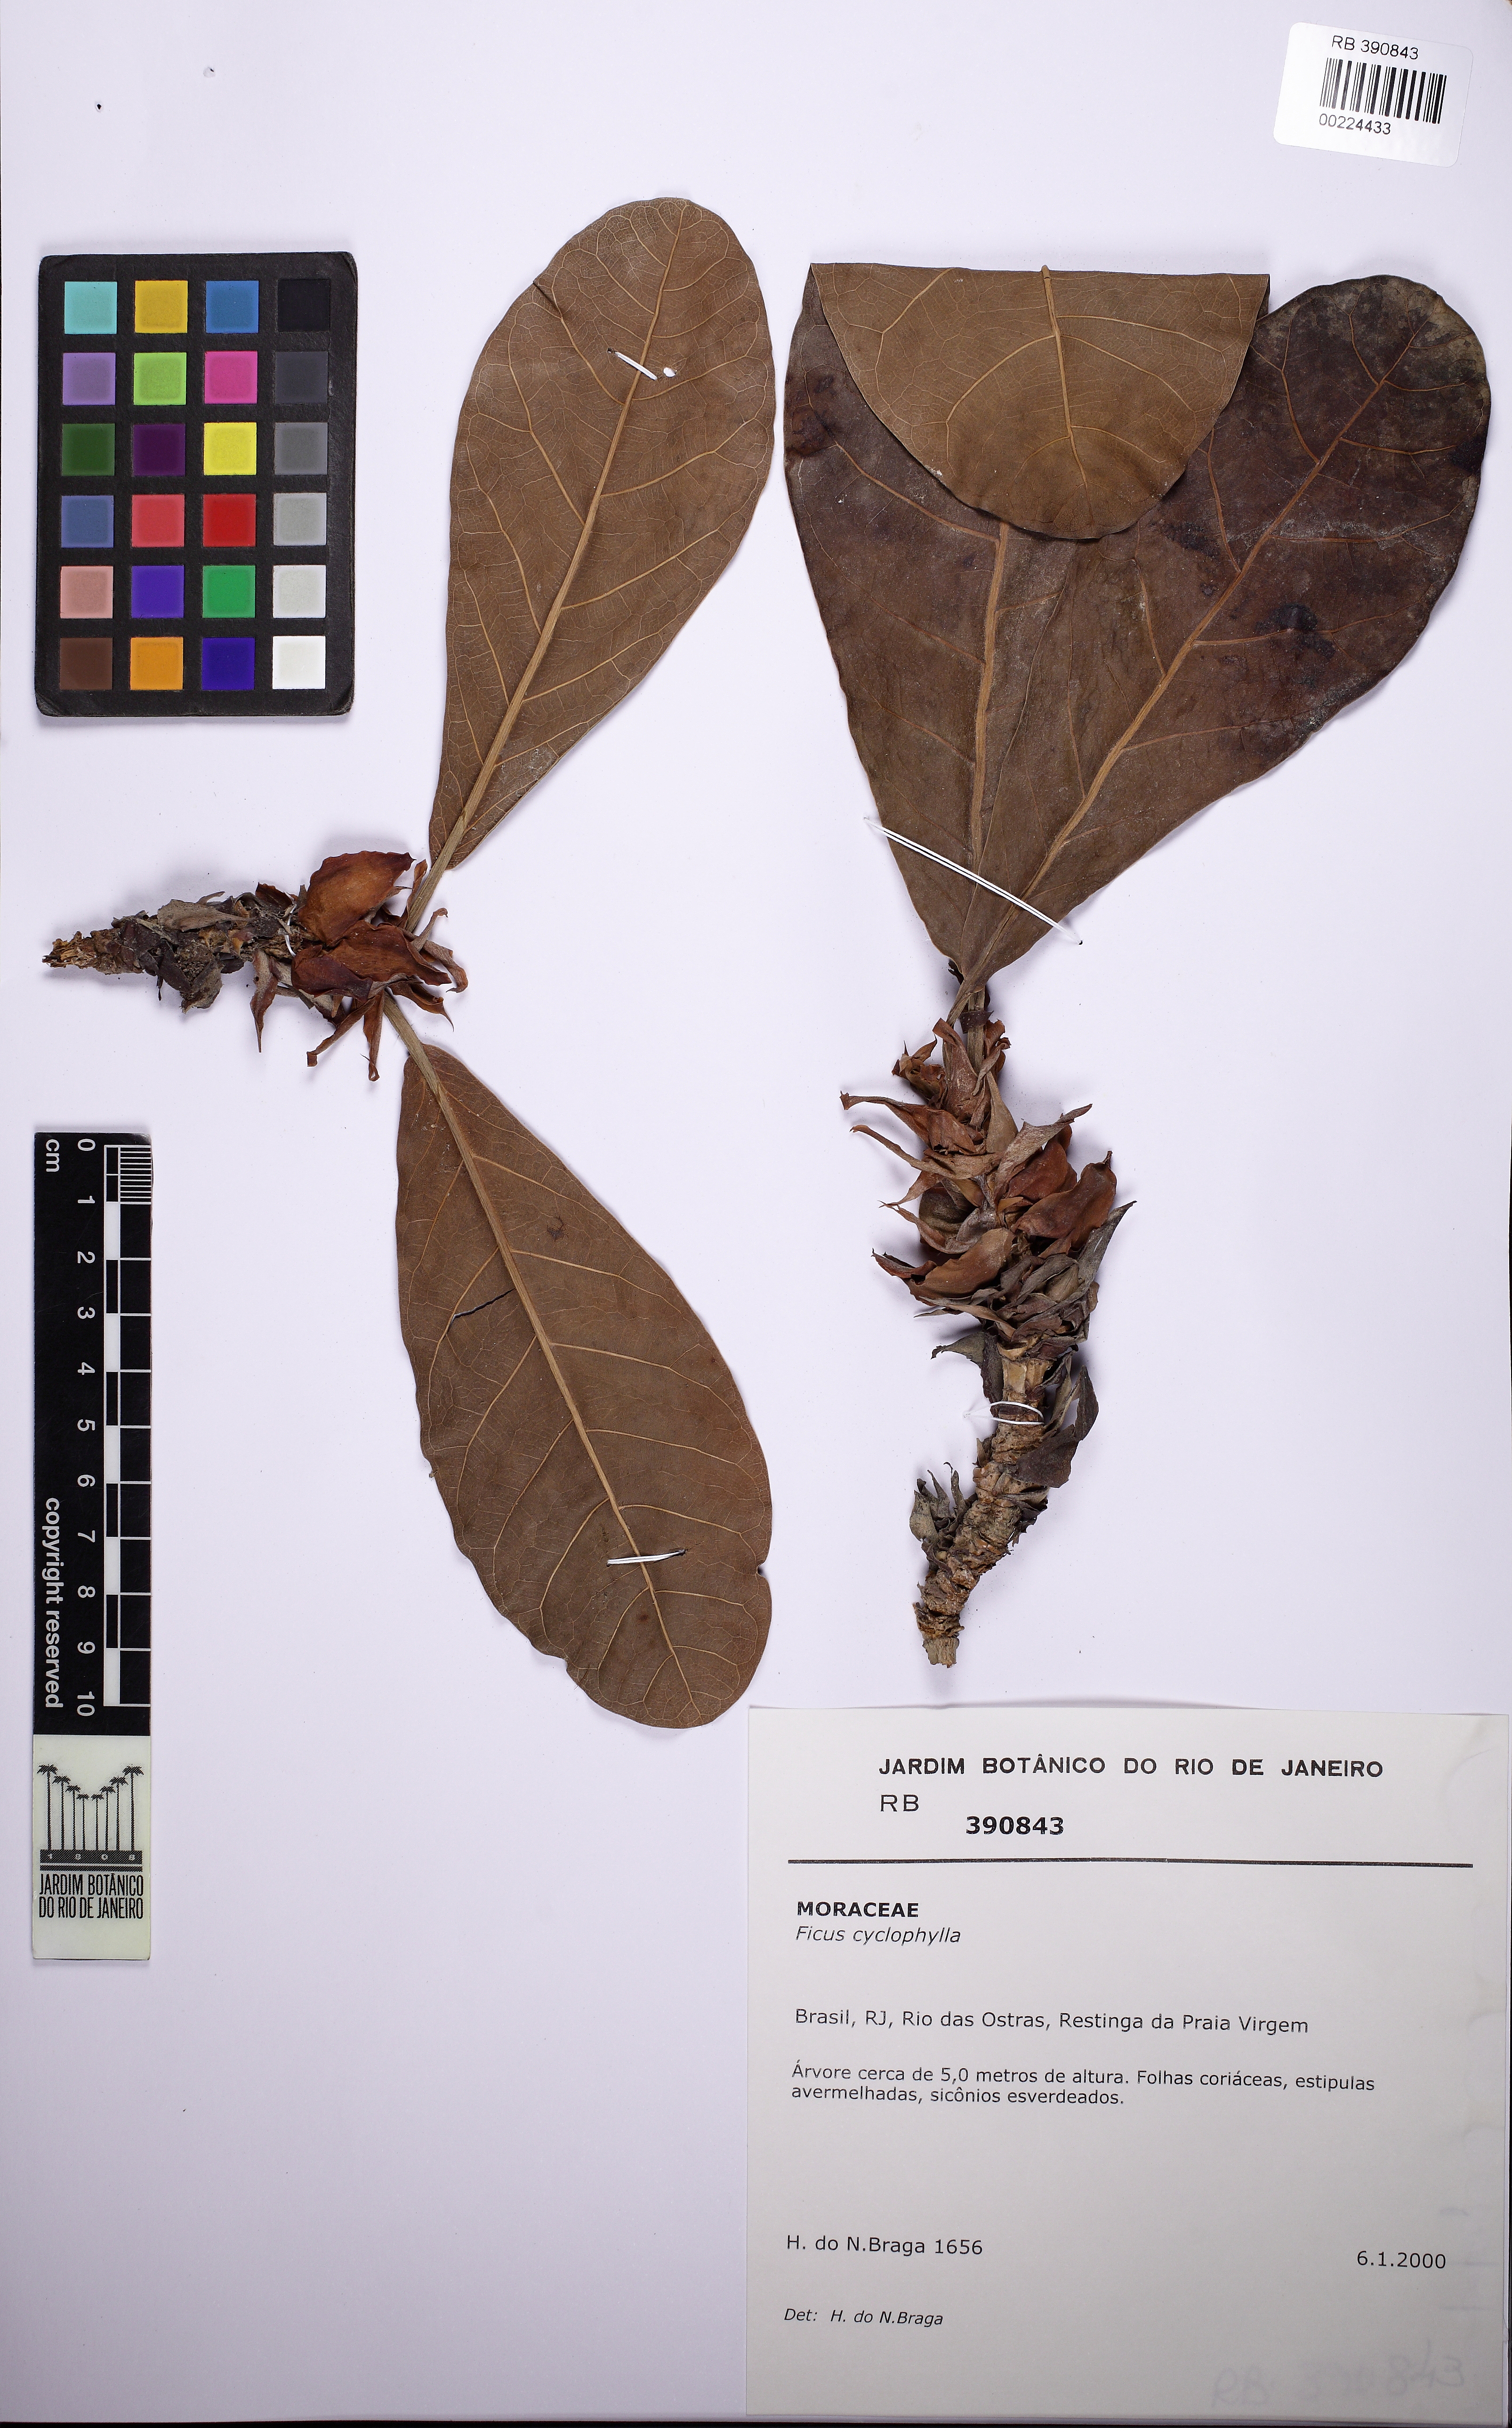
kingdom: Plantae
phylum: Tracheophyta
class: Magnoliopsida
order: Rosales
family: Moraceae
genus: Ficus
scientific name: Ficus cyclophylla
